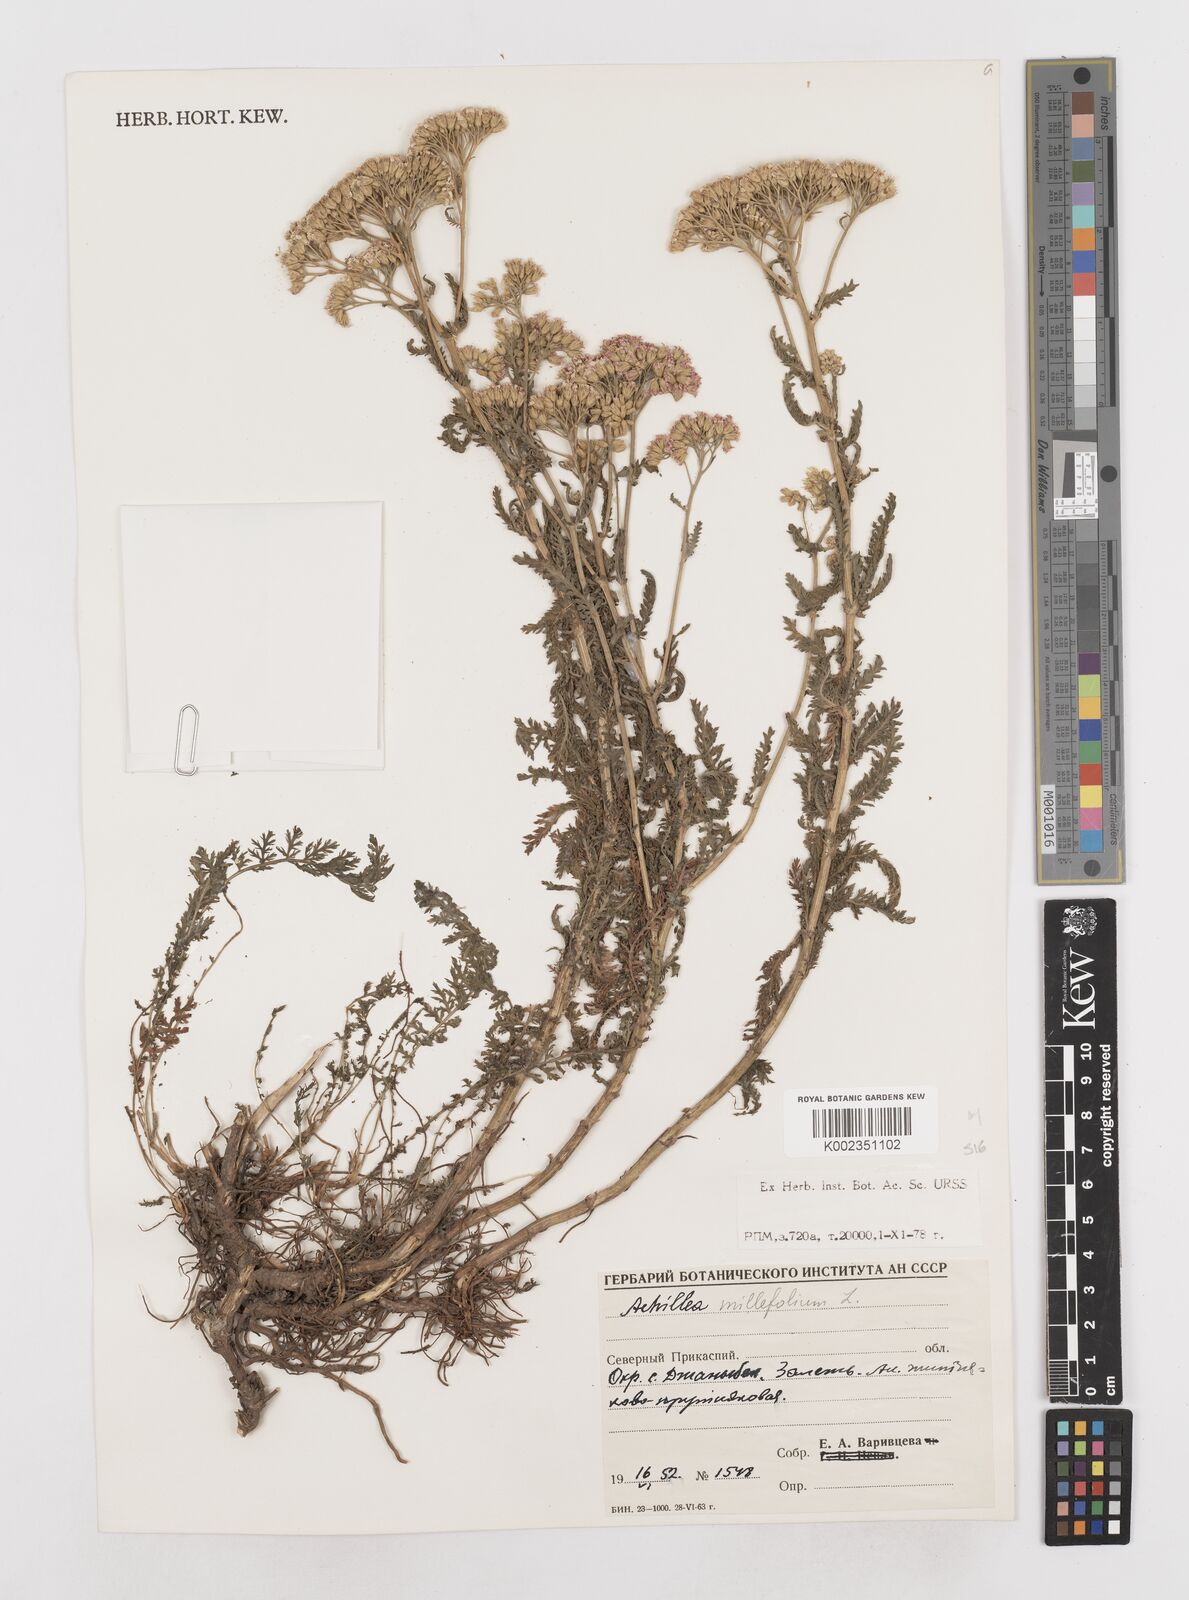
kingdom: Plantae
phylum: Tracheophyta
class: Magnoliopsida
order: Asterales
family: Asteraceae
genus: Achillea
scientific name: Achillea millefolium
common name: Yarrow
